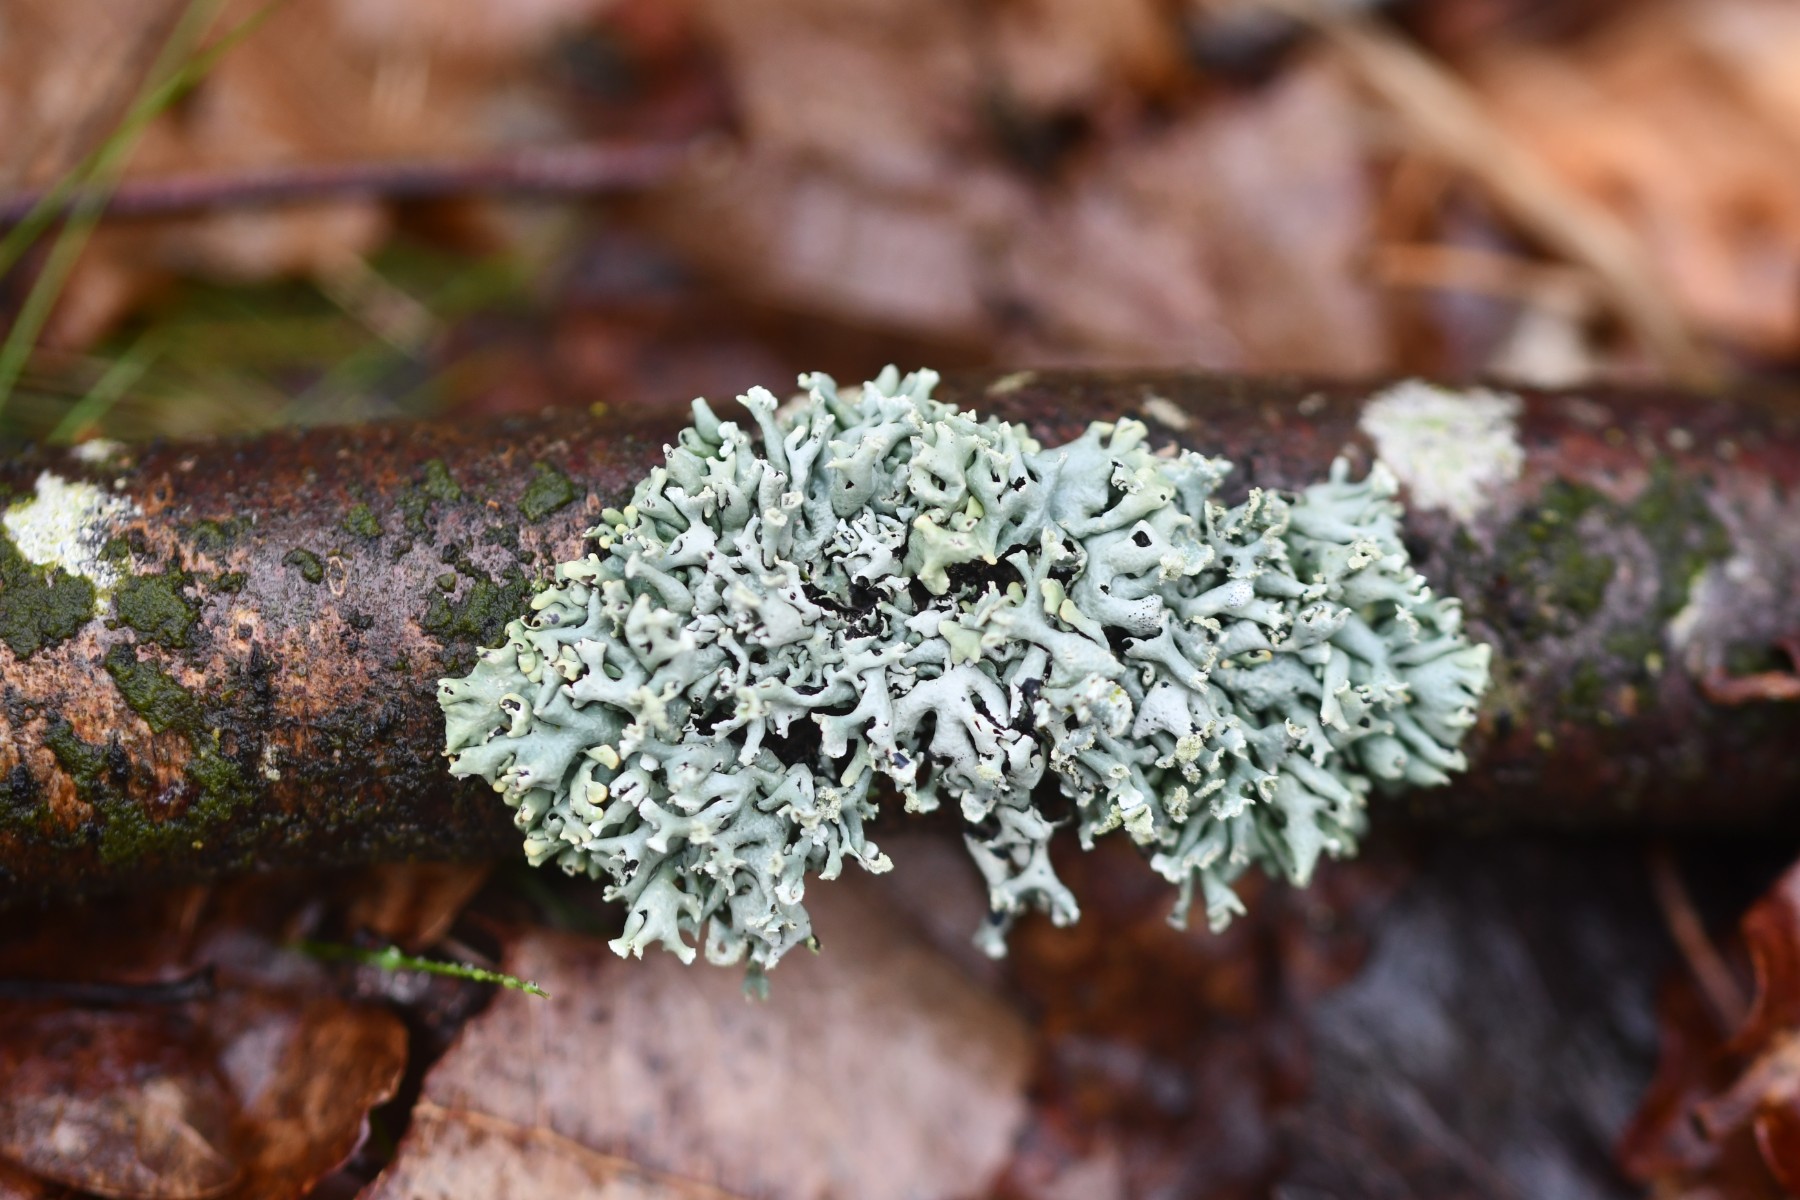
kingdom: Fungi
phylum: Ascomycota
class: Lecanoromycetes
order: Lecanorales
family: Parmeliaceae
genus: Hypogymnia
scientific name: Hypogymnia physodes
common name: almindelig kvistlav
